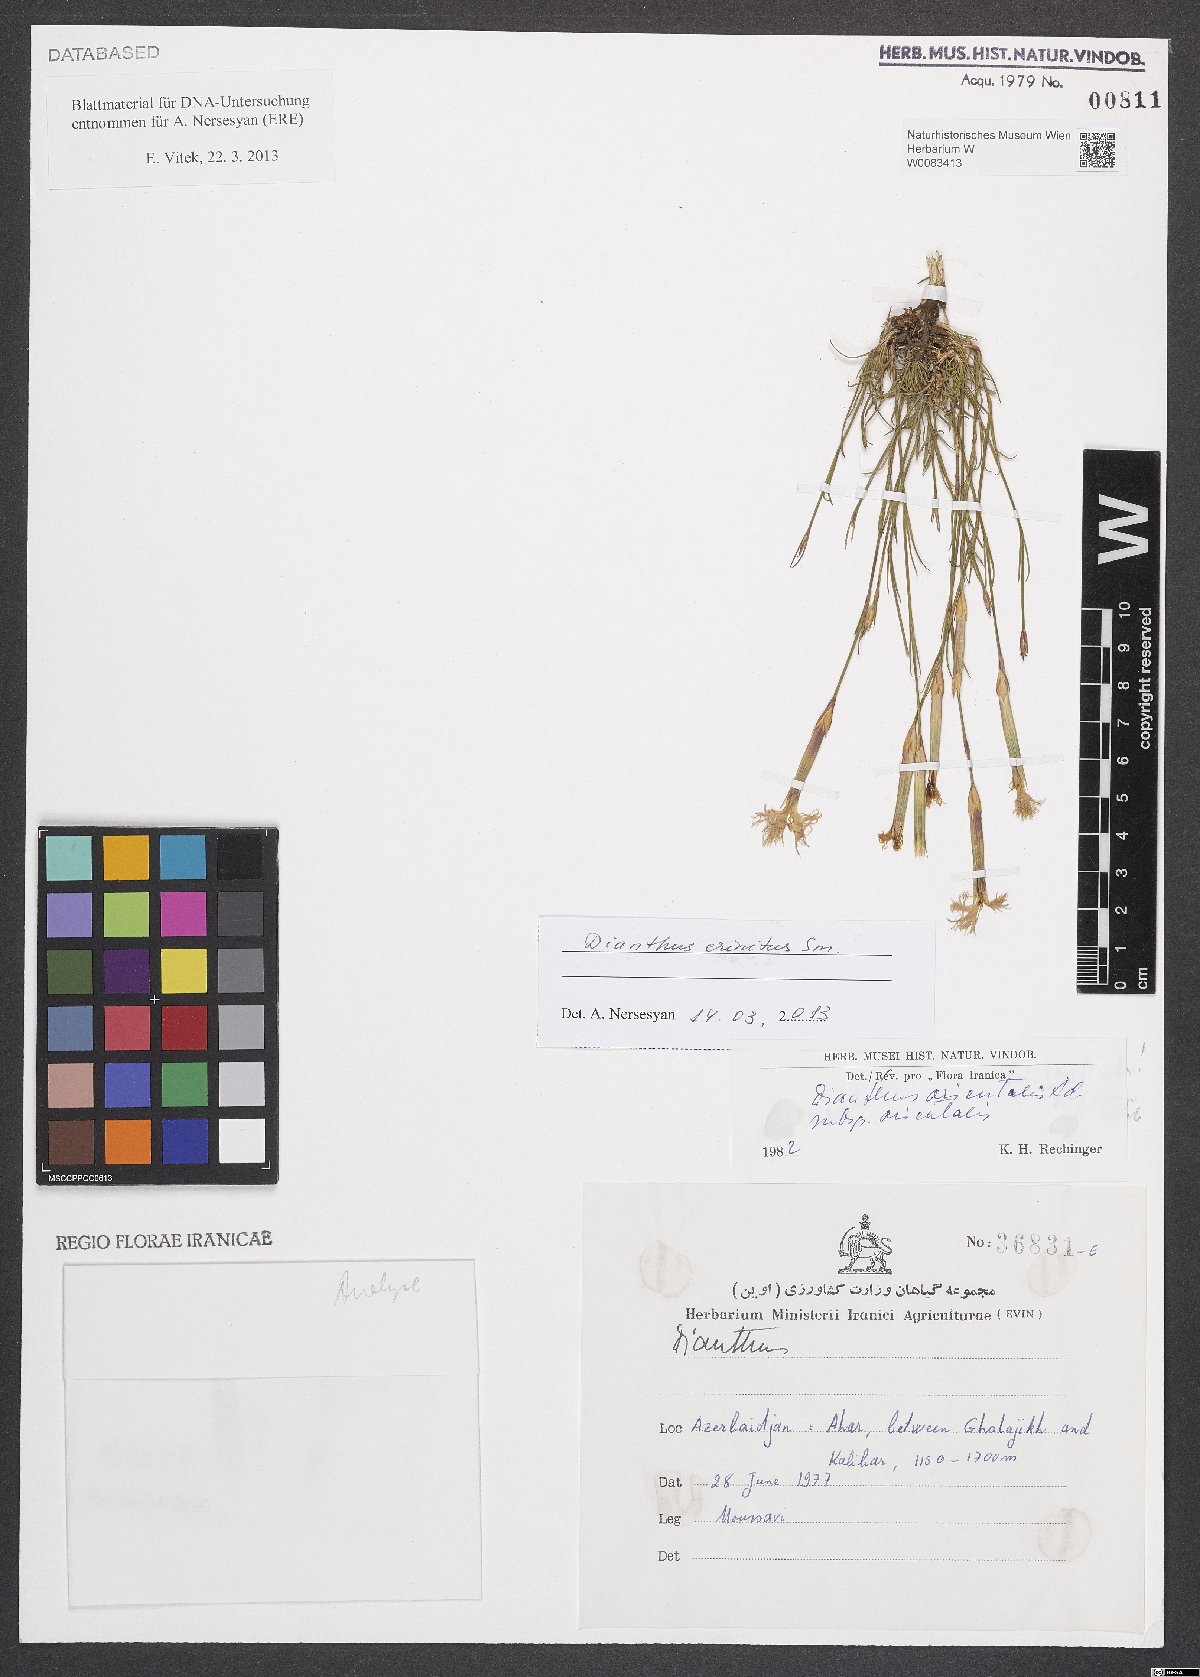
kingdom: Plantae
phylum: Tracheophyta
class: Magnoliopsida
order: Caryophyllales
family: Caryophyllaceae
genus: Dianthus
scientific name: Dianthus crinitus
